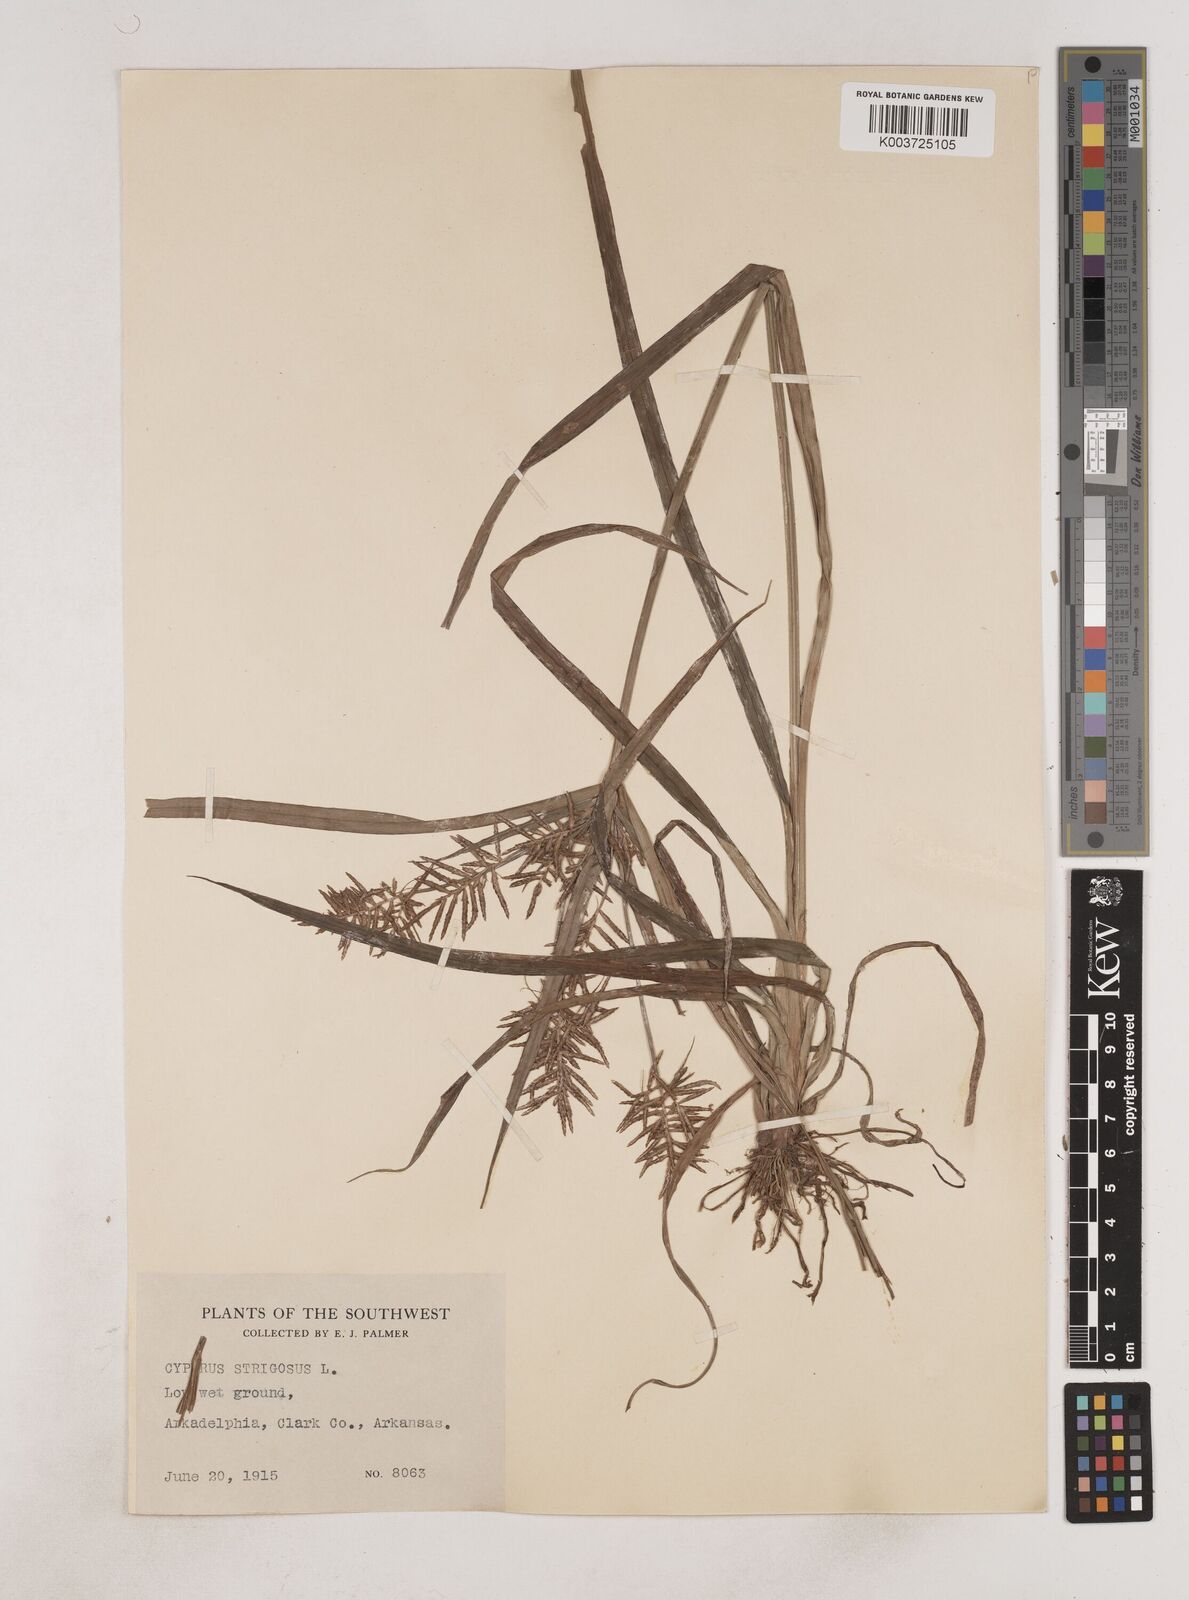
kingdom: Plantae
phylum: Tracheophyta
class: Liliopsida
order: Poales
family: Cyperaceae
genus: Cyperus
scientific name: Cyperus strigosus
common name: False nutsedge
